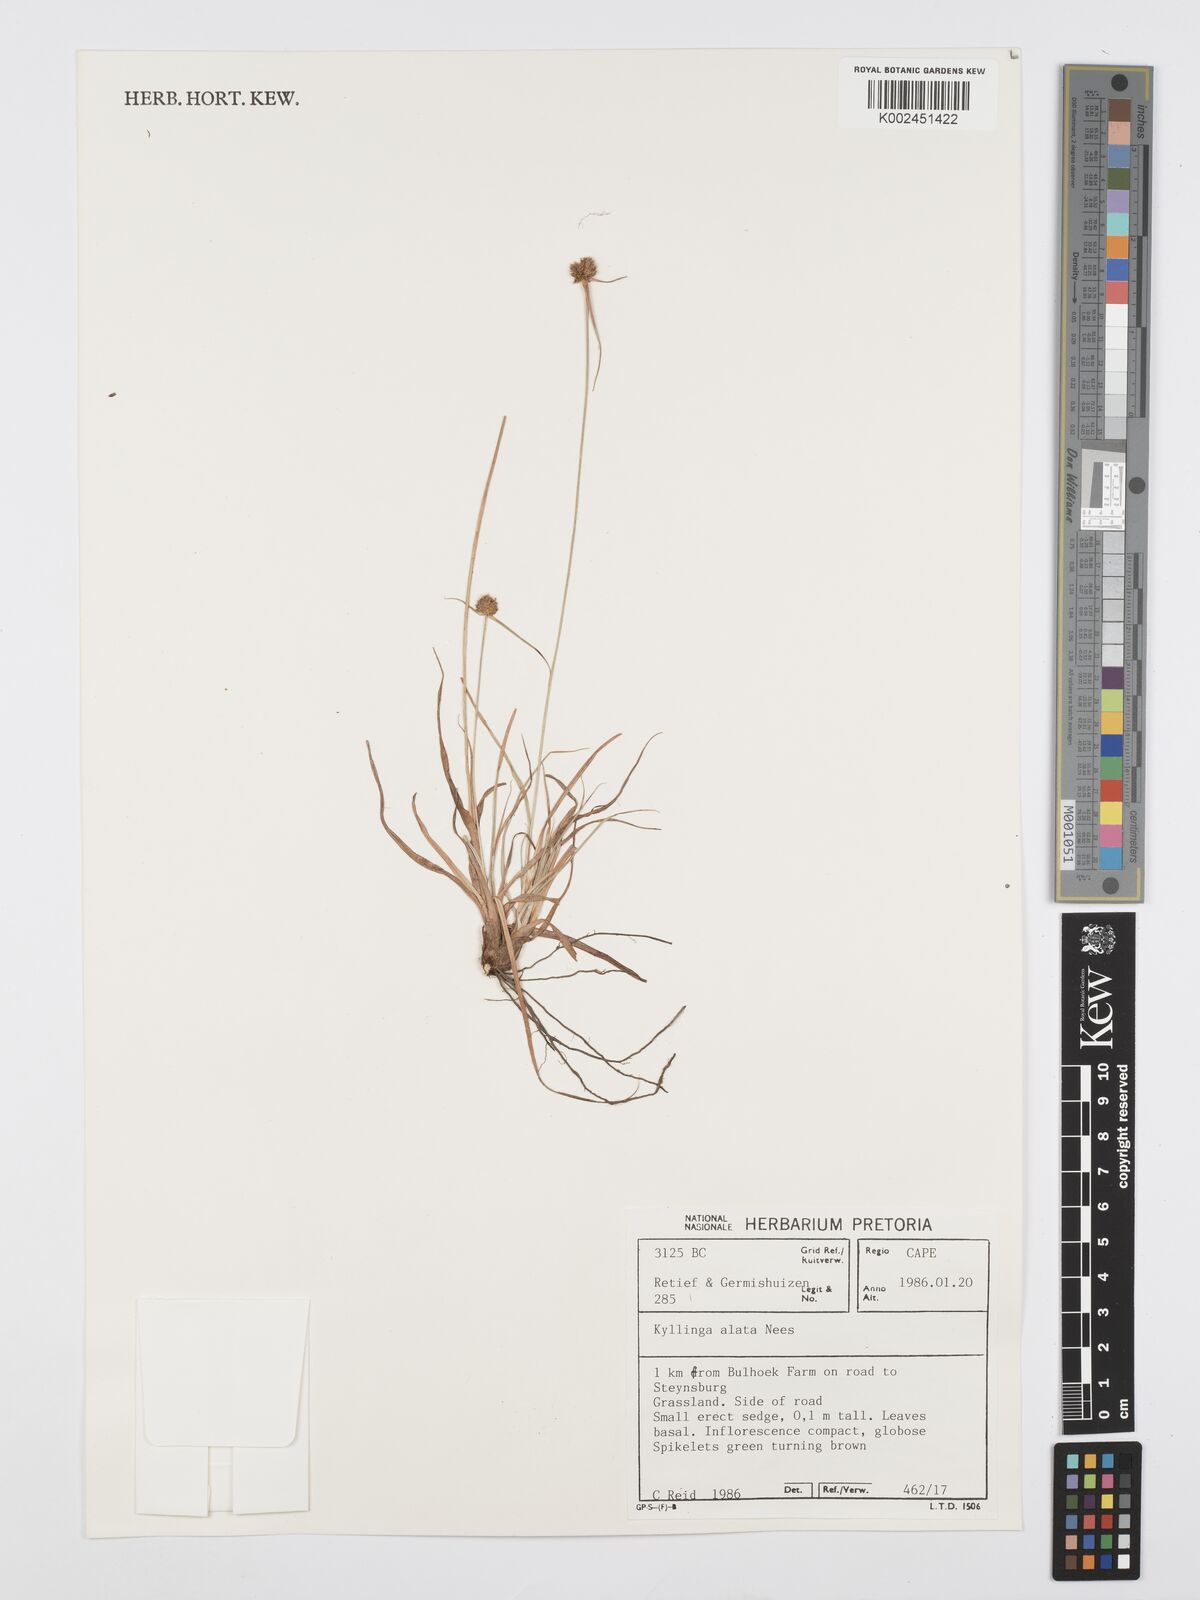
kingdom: Plantae
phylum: Tracheophyta
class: Liliopsida
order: Poales
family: Cyperaceae
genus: Cyperus
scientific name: Cyperus alatus
